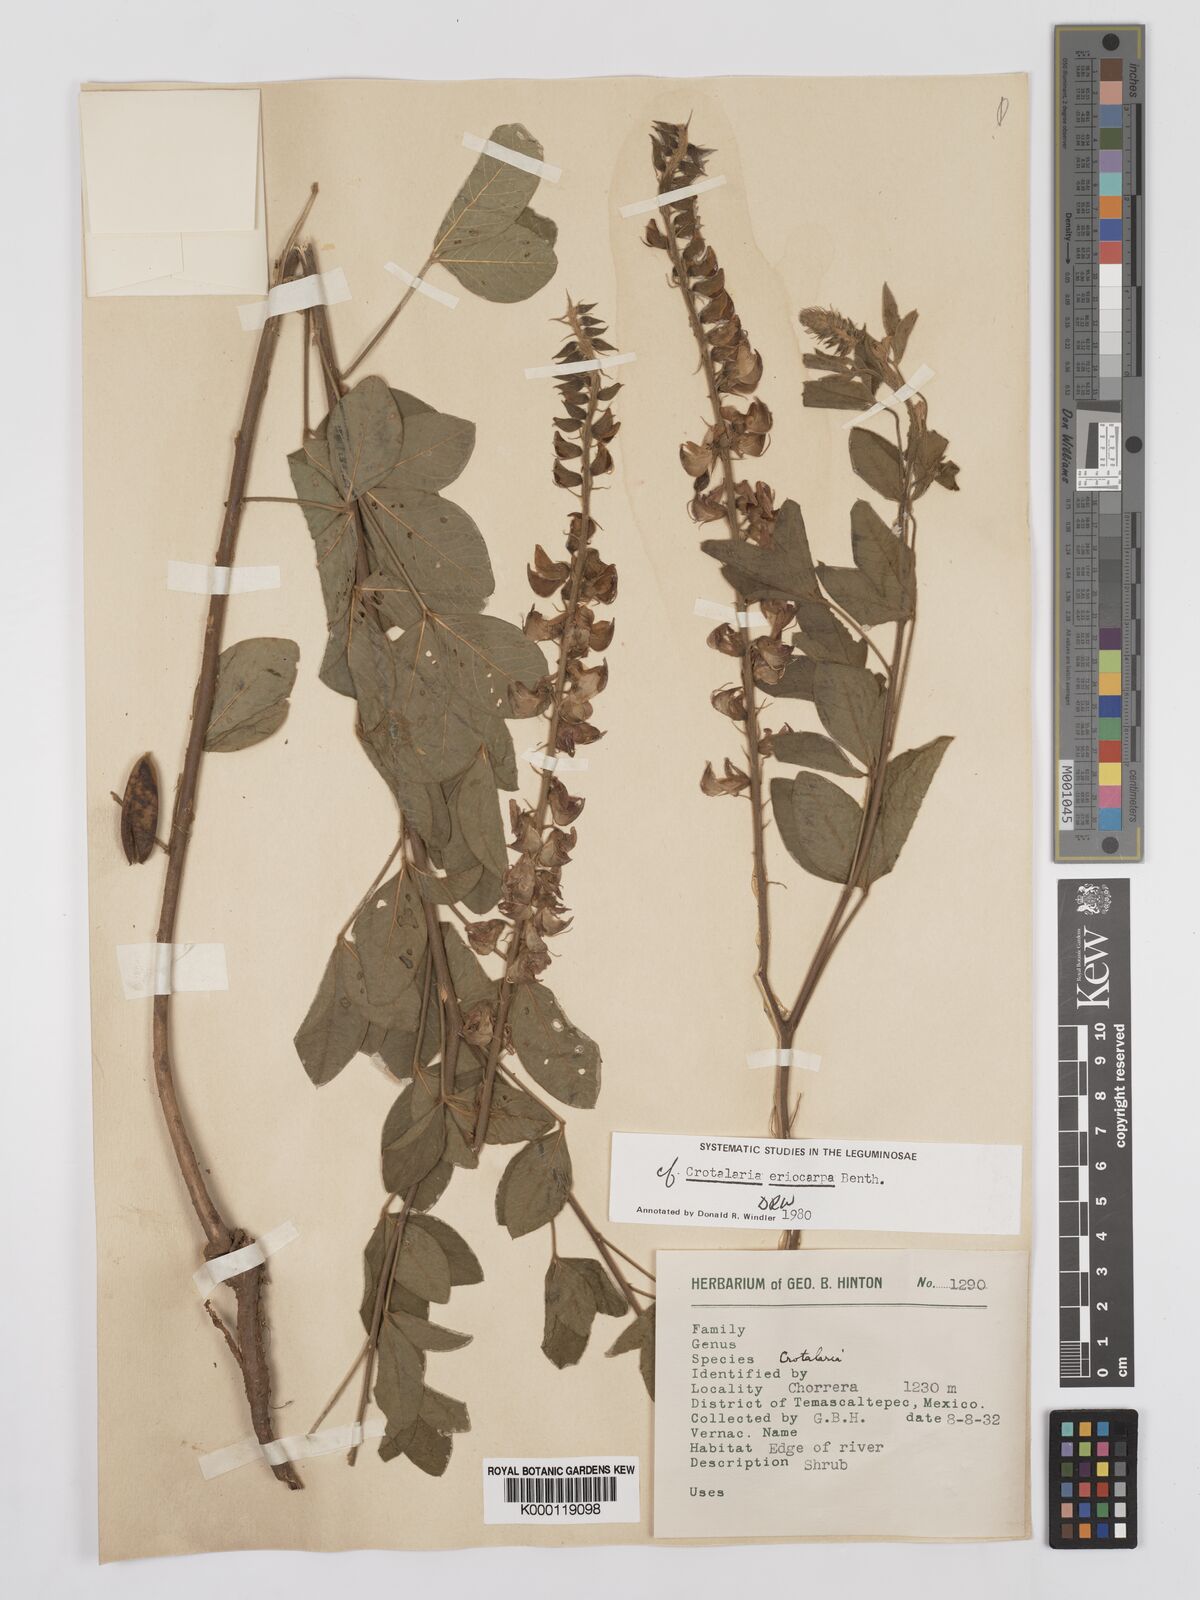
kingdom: Plantae
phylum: Tracheophyta
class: Magnoliopsida
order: Fabales
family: Fabaceae
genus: Crotalaria
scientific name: Crotalaria eriocarpa
